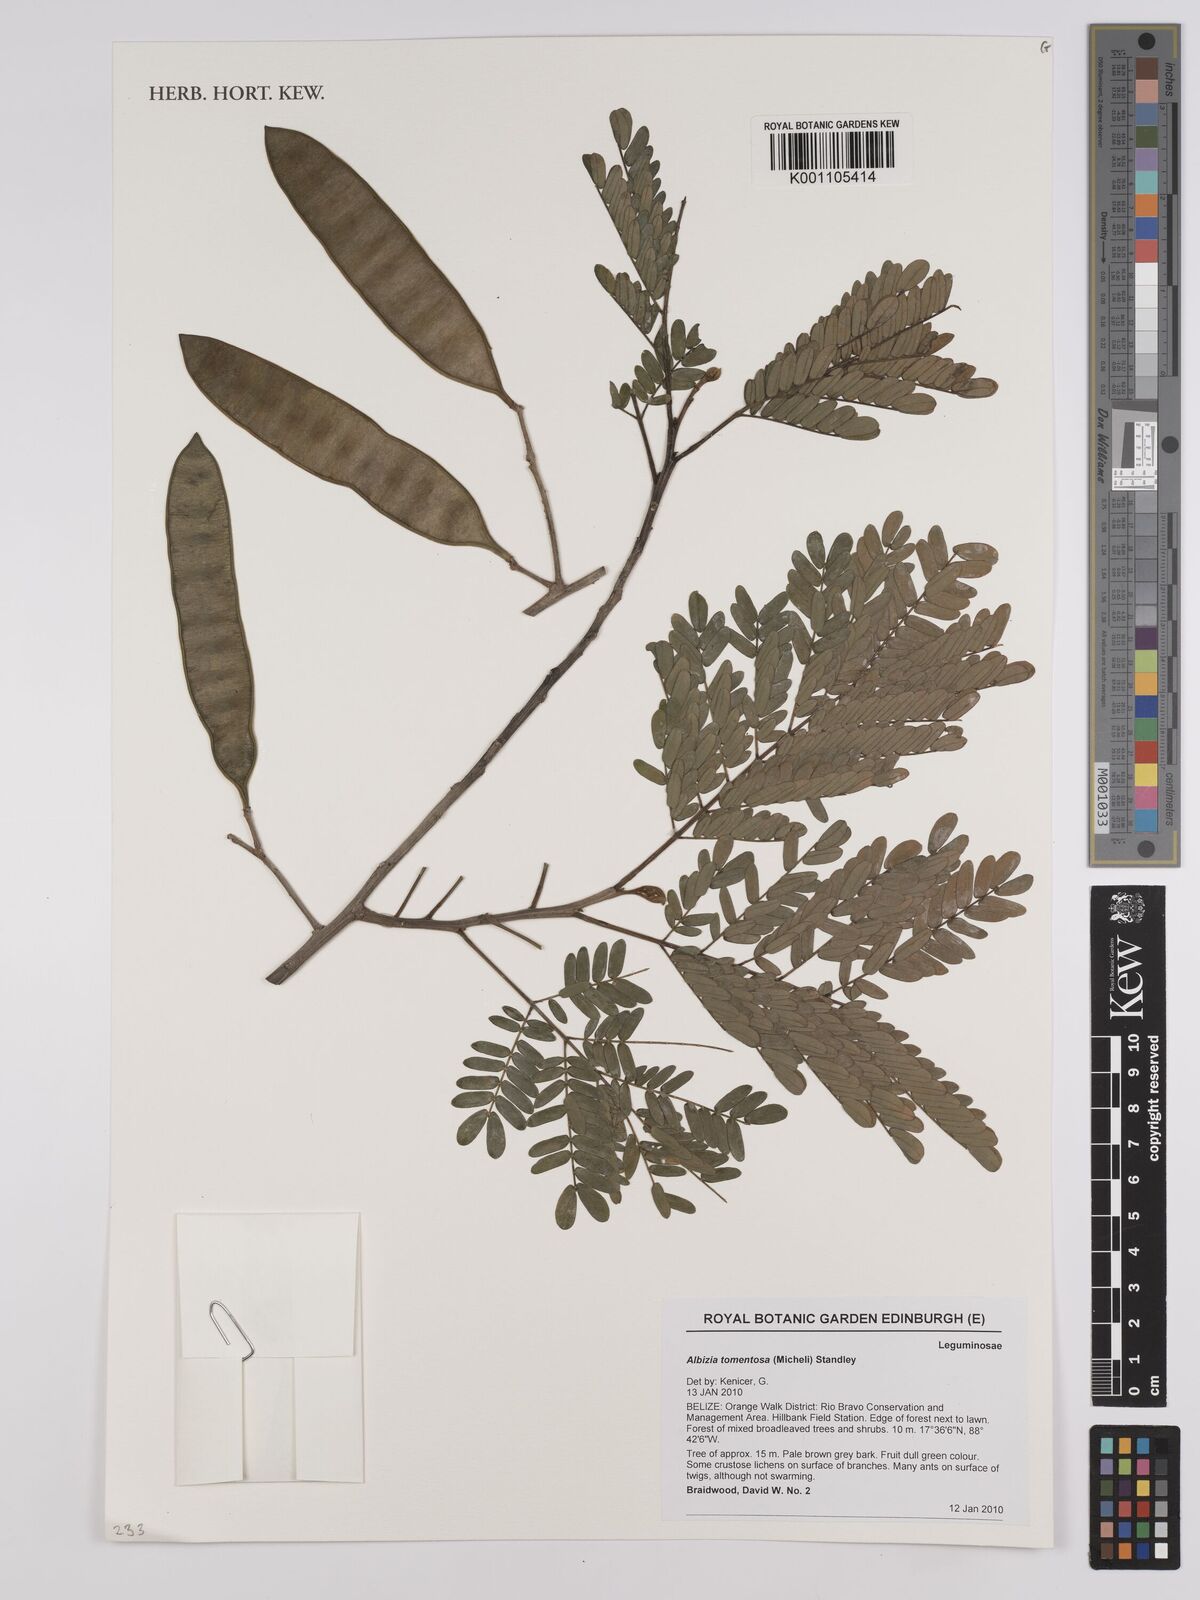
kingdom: Plantae
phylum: Tracheophyta
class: Magnoliopsida
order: Fabales
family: Fabaceae
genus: Albizia
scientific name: Albizia tomentosa
